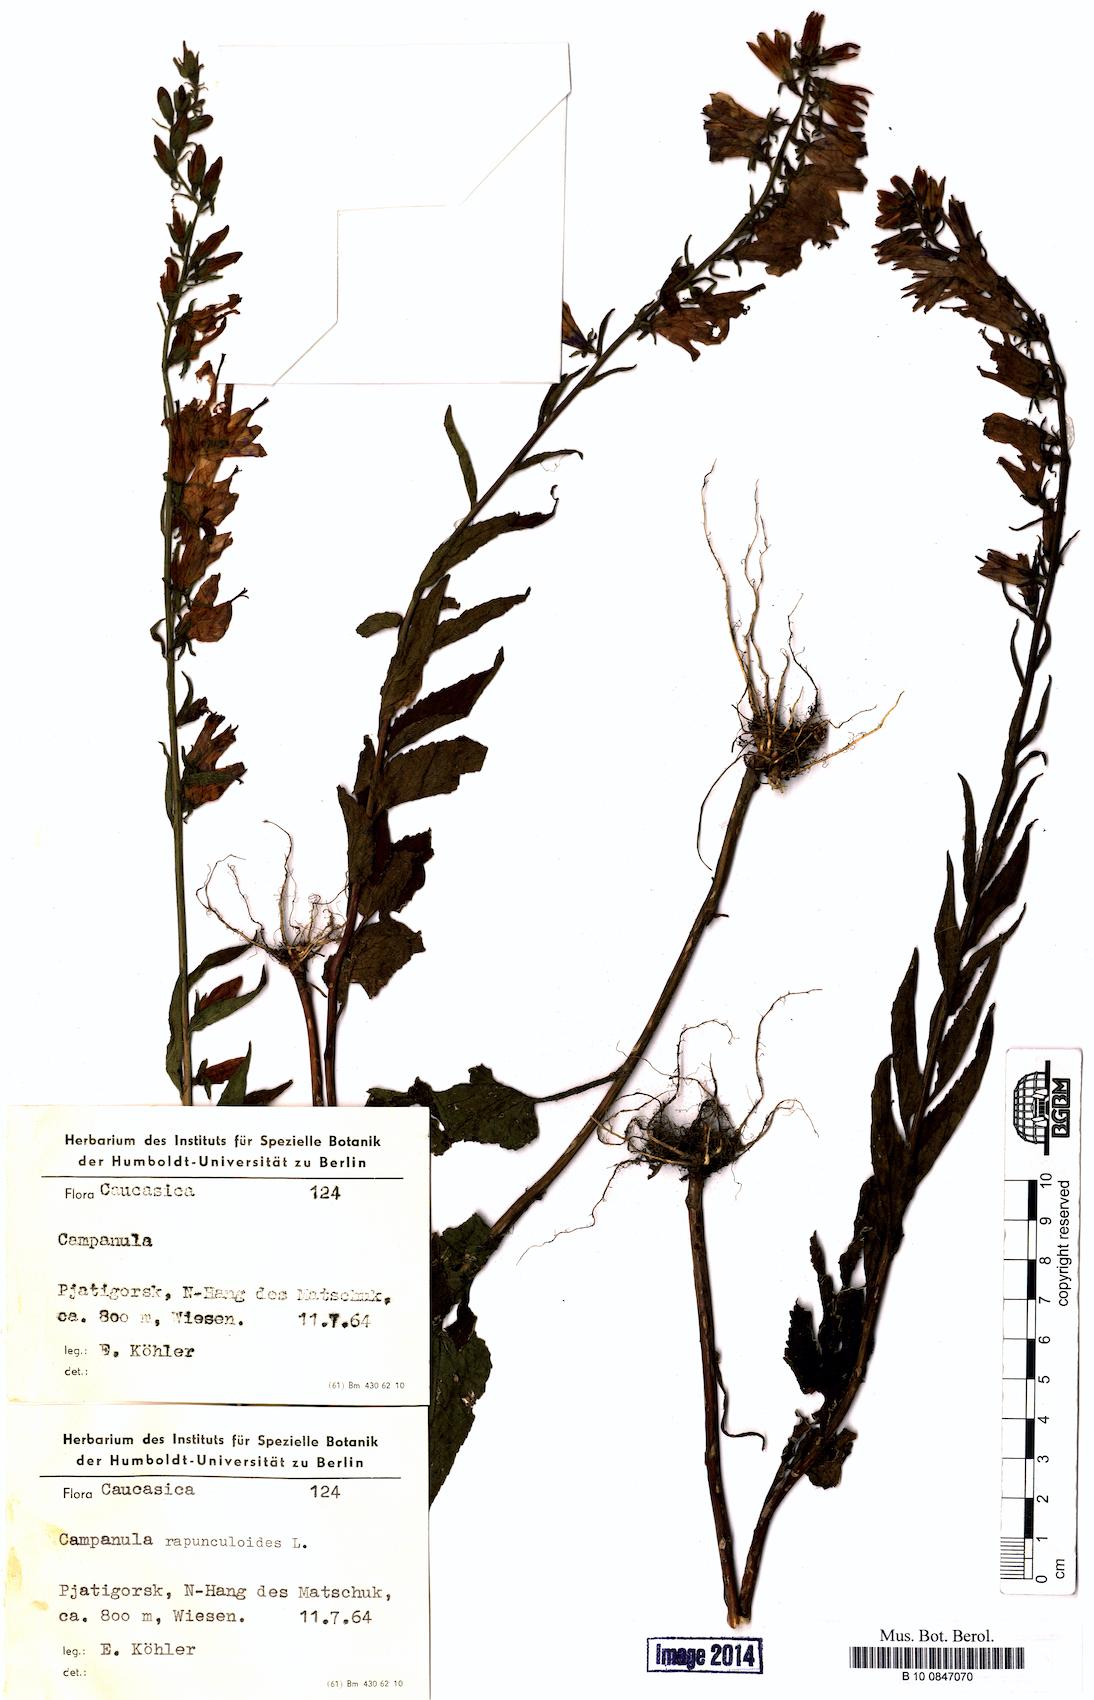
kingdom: Plantae
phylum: Tracheophyta
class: Magnoliopsida
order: Asterales
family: Campanulaceae
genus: Campanula
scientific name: Campanula rapunculoides
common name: Creeping bellflower
